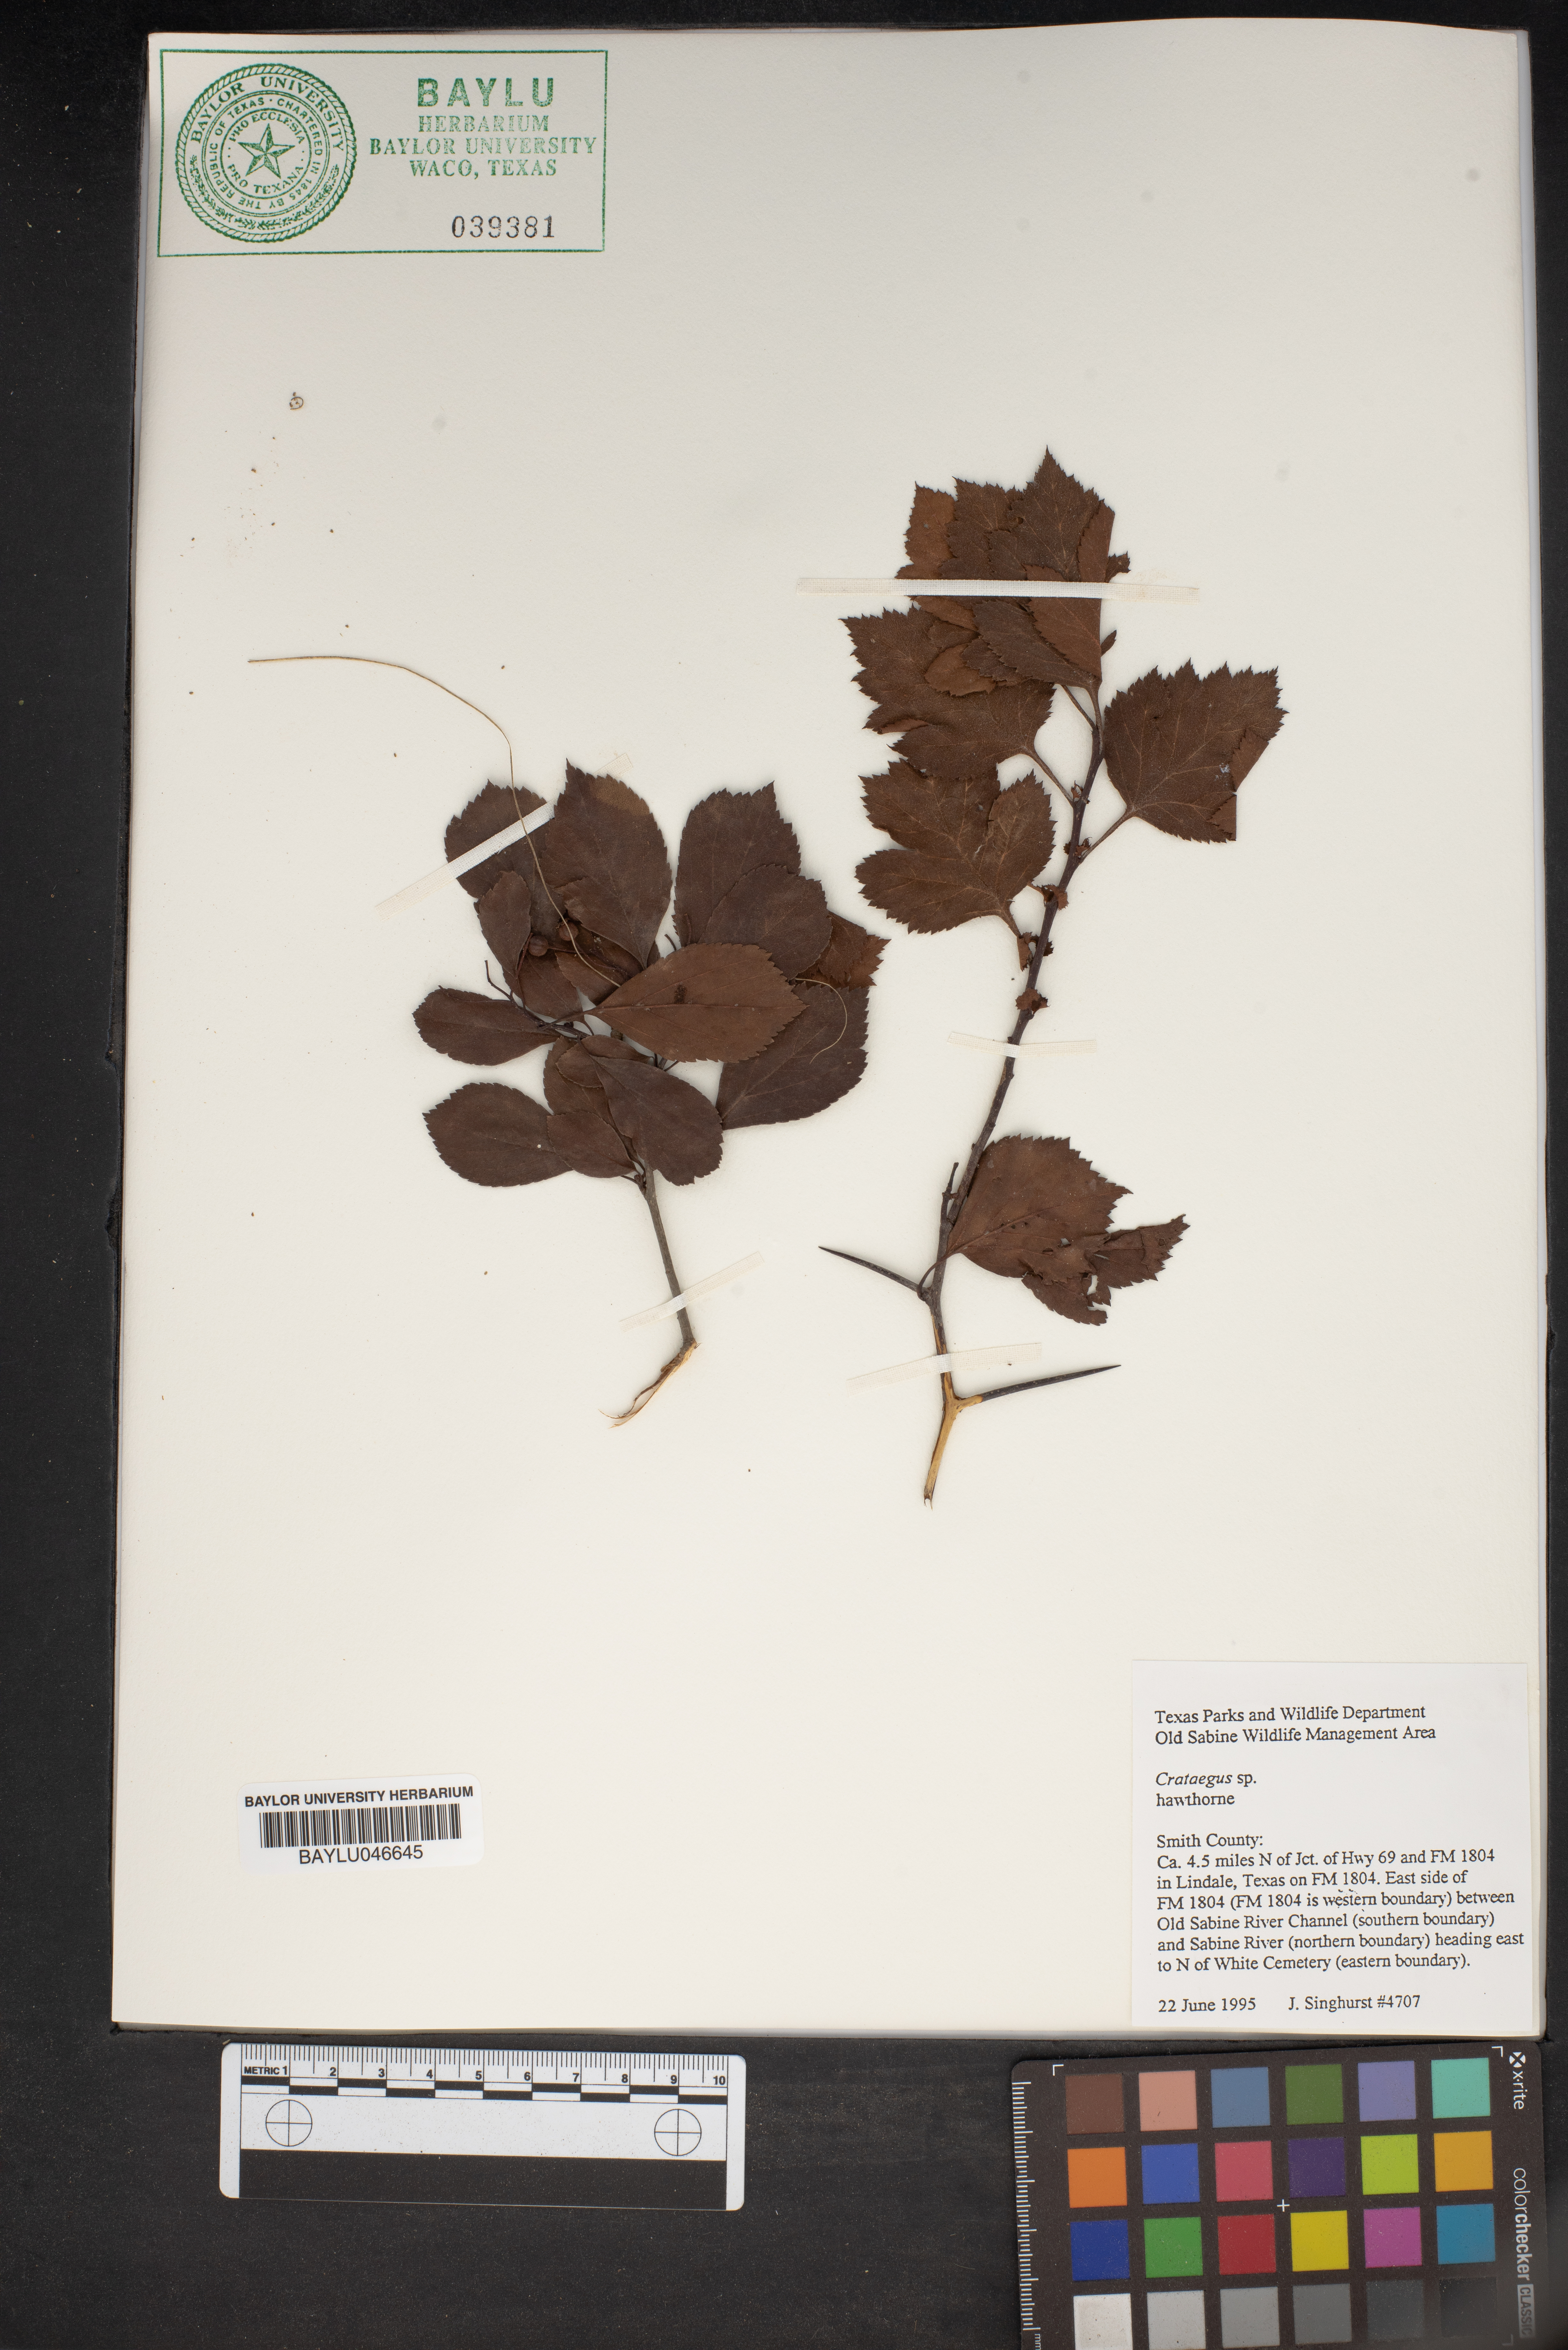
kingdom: Plantae
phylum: Tracheophyta
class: Magnoliopsida
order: Rosales
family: Rosaceae
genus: Crataegus
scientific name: Crataegus
